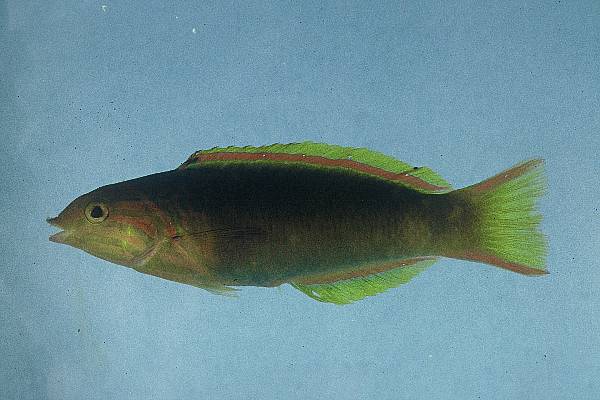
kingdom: Animalia
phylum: Chordata
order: Perciformes
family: Labridae
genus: Thalassoma
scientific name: Thalassoma lutescens
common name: Green moon wrasse
